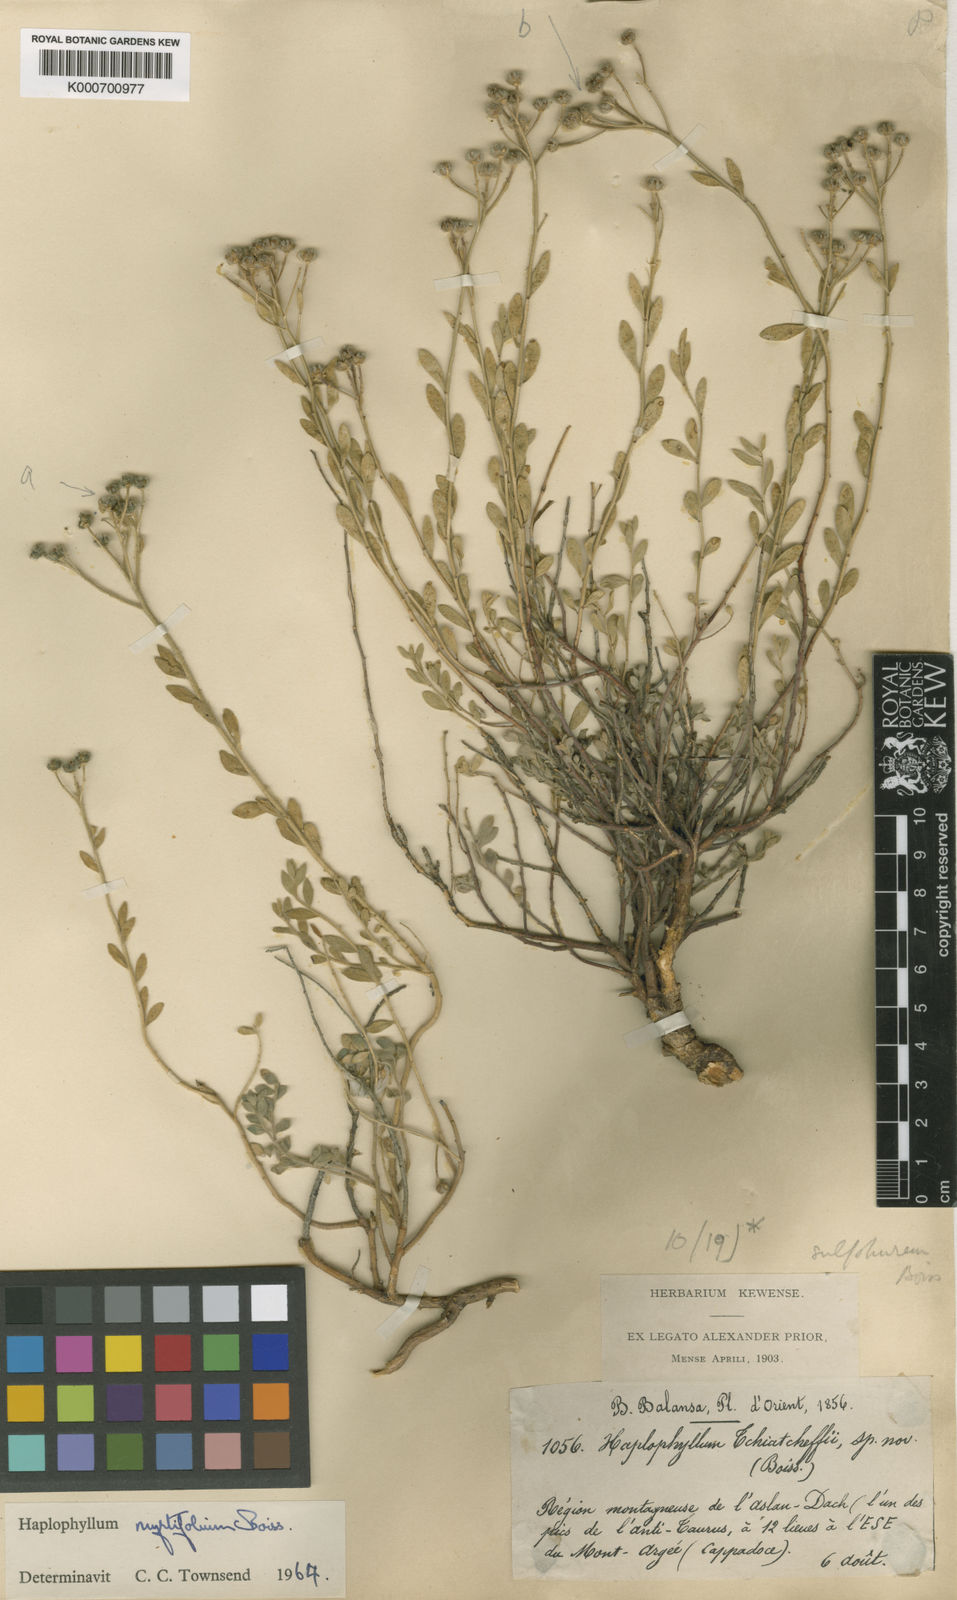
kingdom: Plantae
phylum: Tracheophyta
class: Magnoliopsida
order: Sapindales
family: Rutaceae
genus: Haplophyllum
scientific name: Haplophyllum myrtifolium
